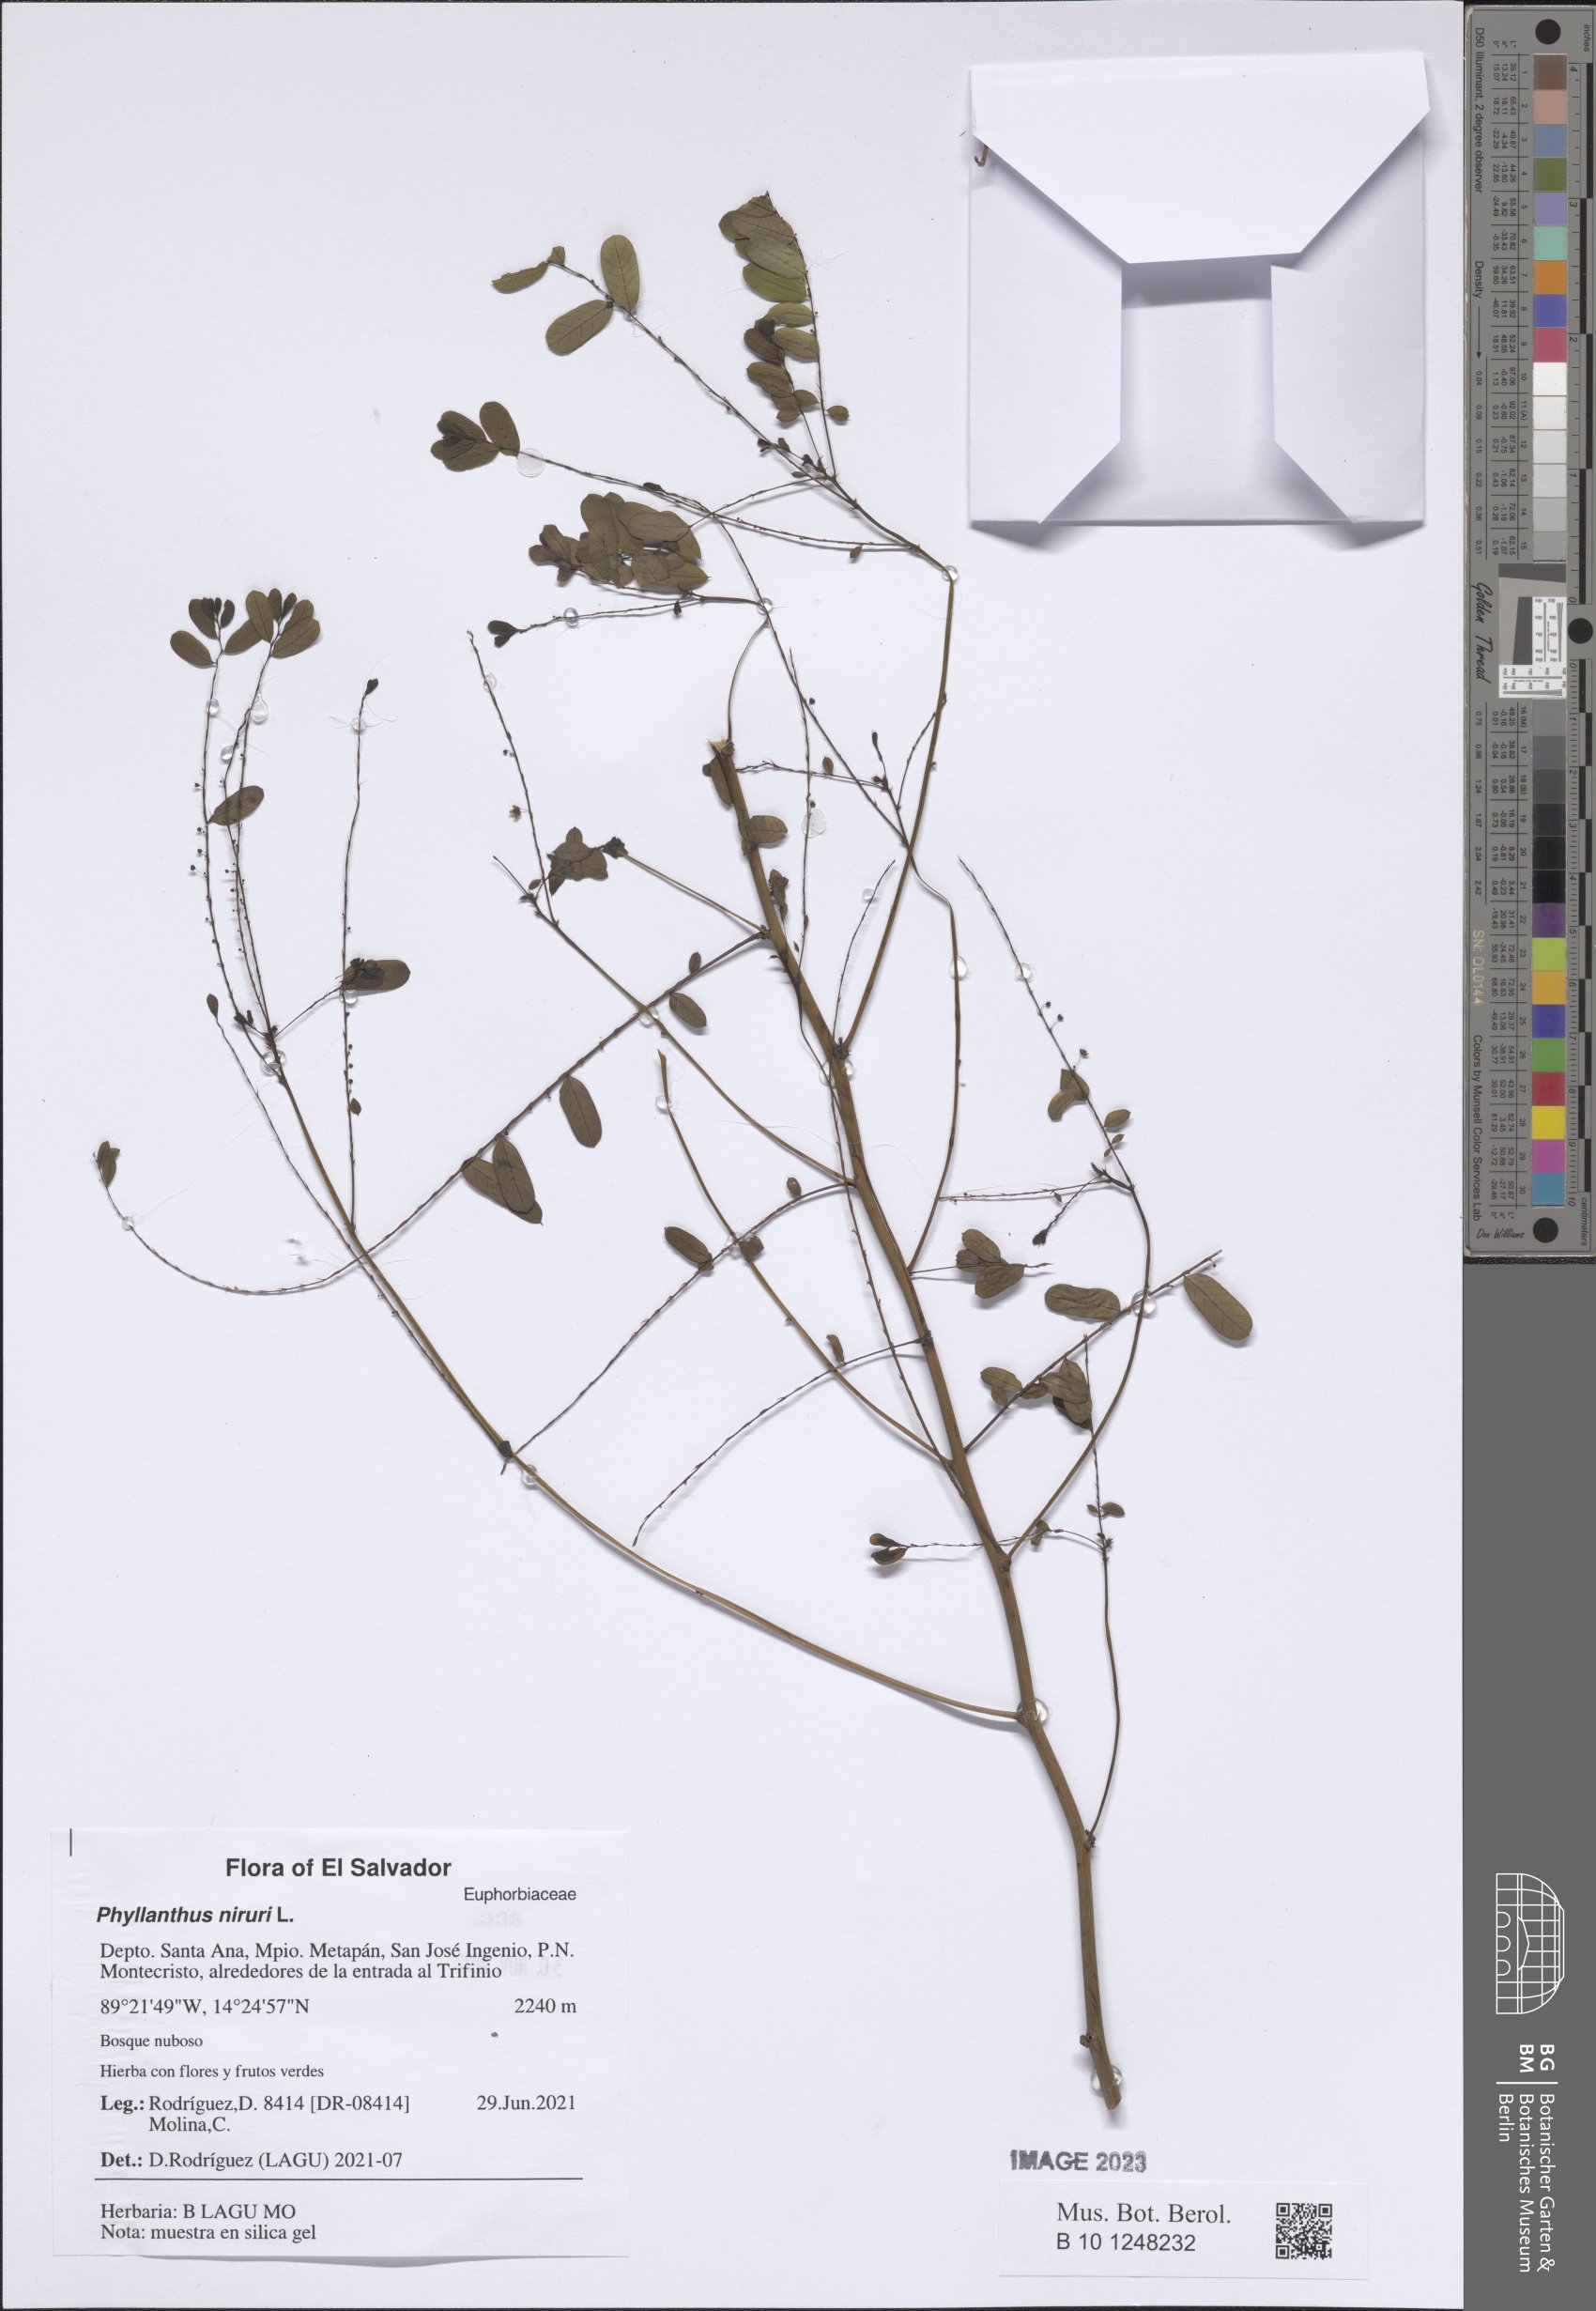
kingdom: Plantae
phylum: Tracheophyta
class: Magnoliopsida
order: Malpighiales
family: Phyllanthaceae
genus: Phyllanthus
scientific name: Phyllanthus niruri
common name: Niruri
